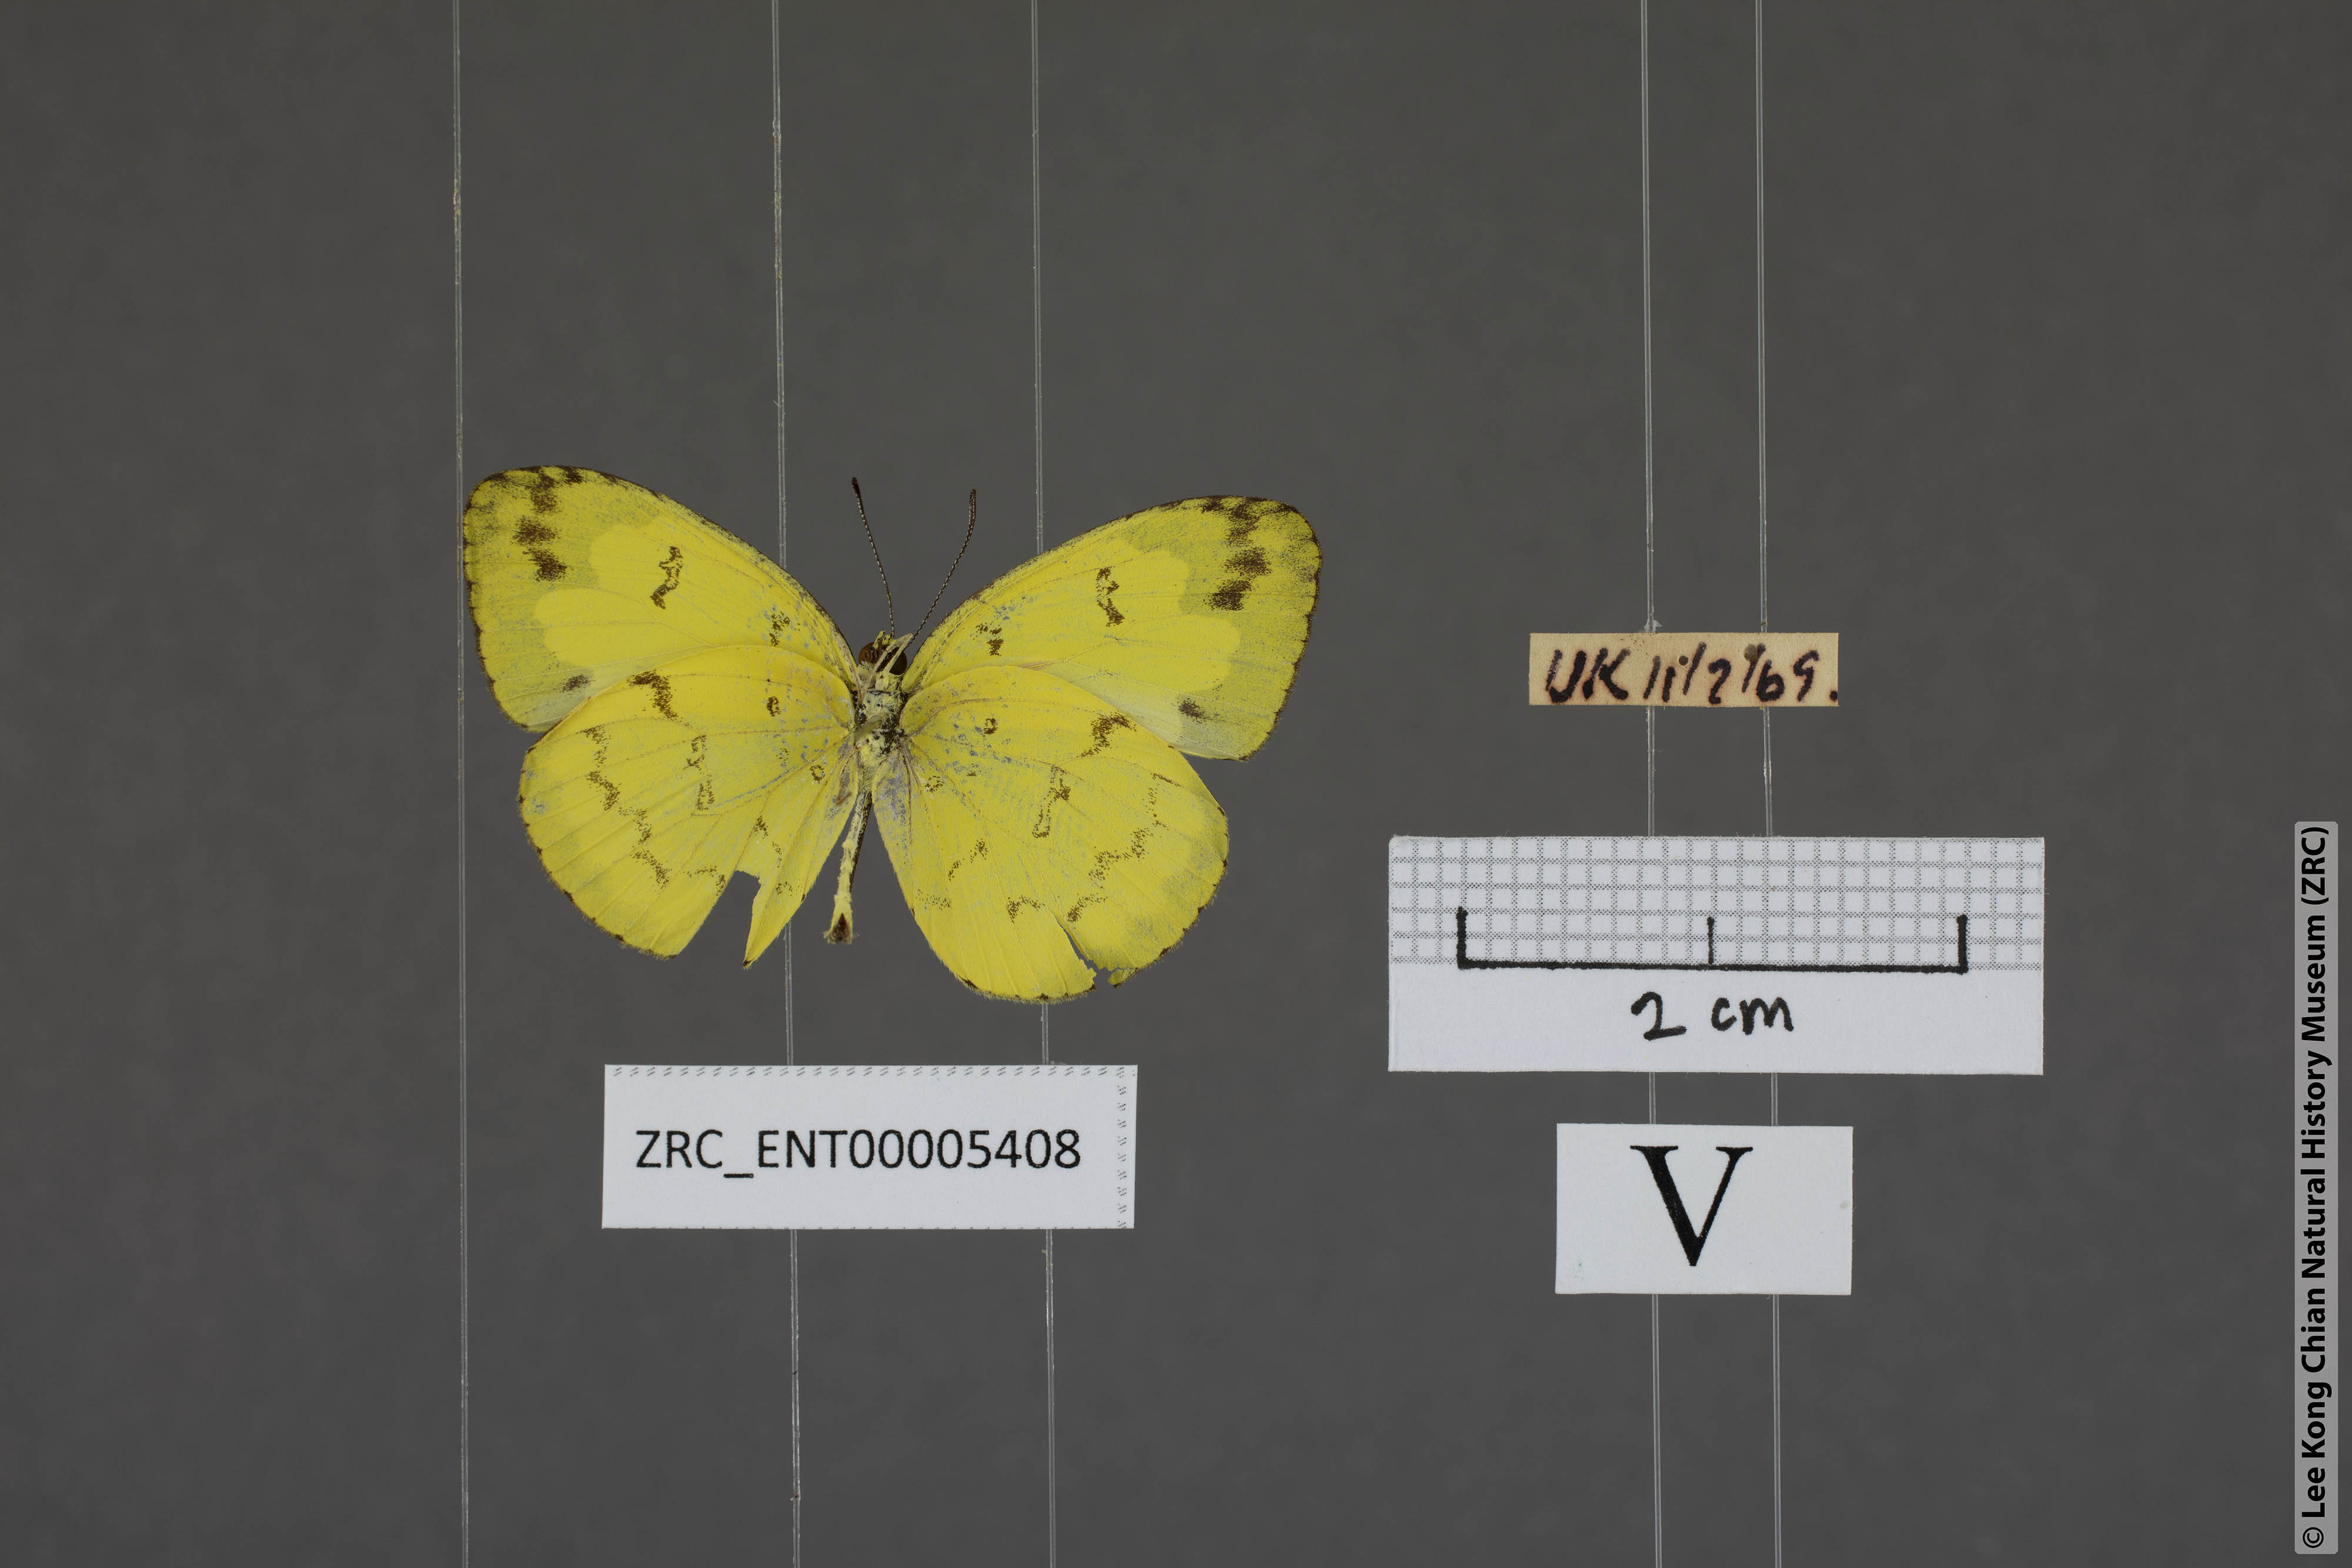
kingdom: Animalia
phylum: Arthropoda
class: Insecta
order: Lepidoptera
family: Pieridae
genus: Eurema
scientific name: Eurema andersoni
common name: One-spot yellow grass
